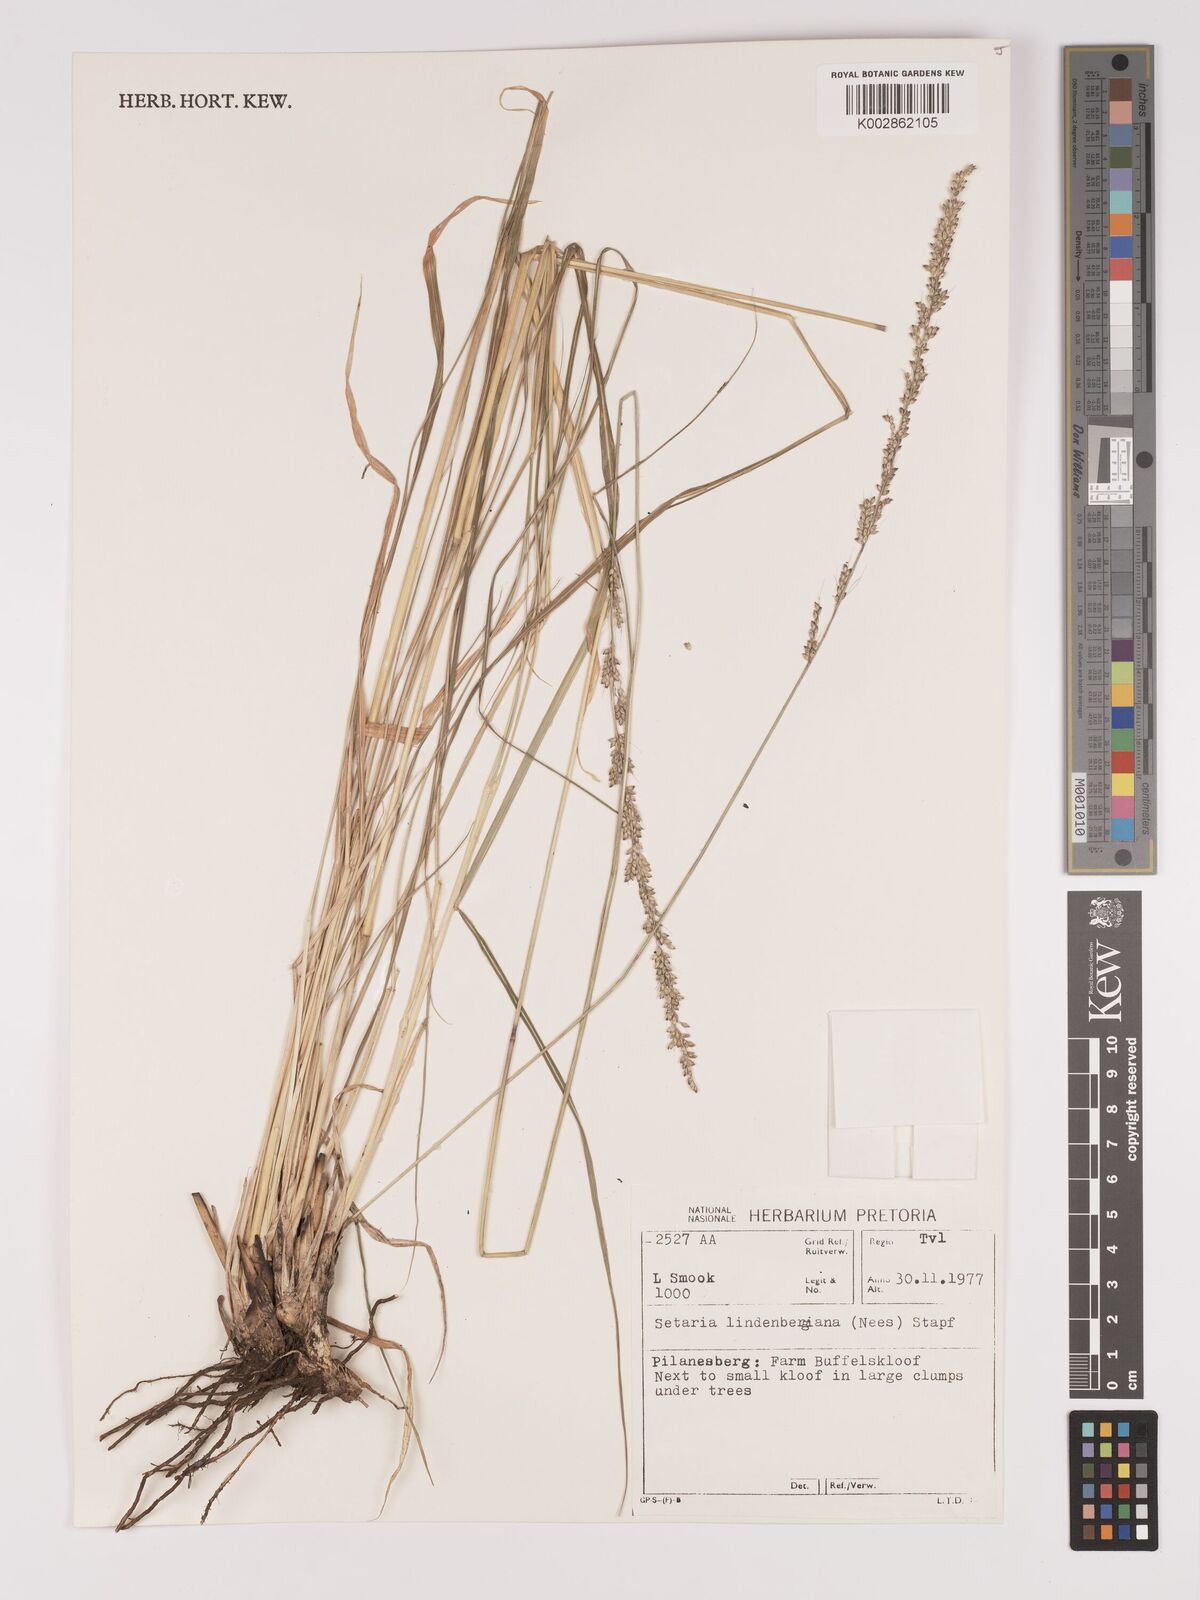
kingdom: Plantae
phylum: Tracheophyta
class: Liliopsida
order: Poales
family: Poaceae
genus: Setaria
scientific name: Setaria lindenbergiana
